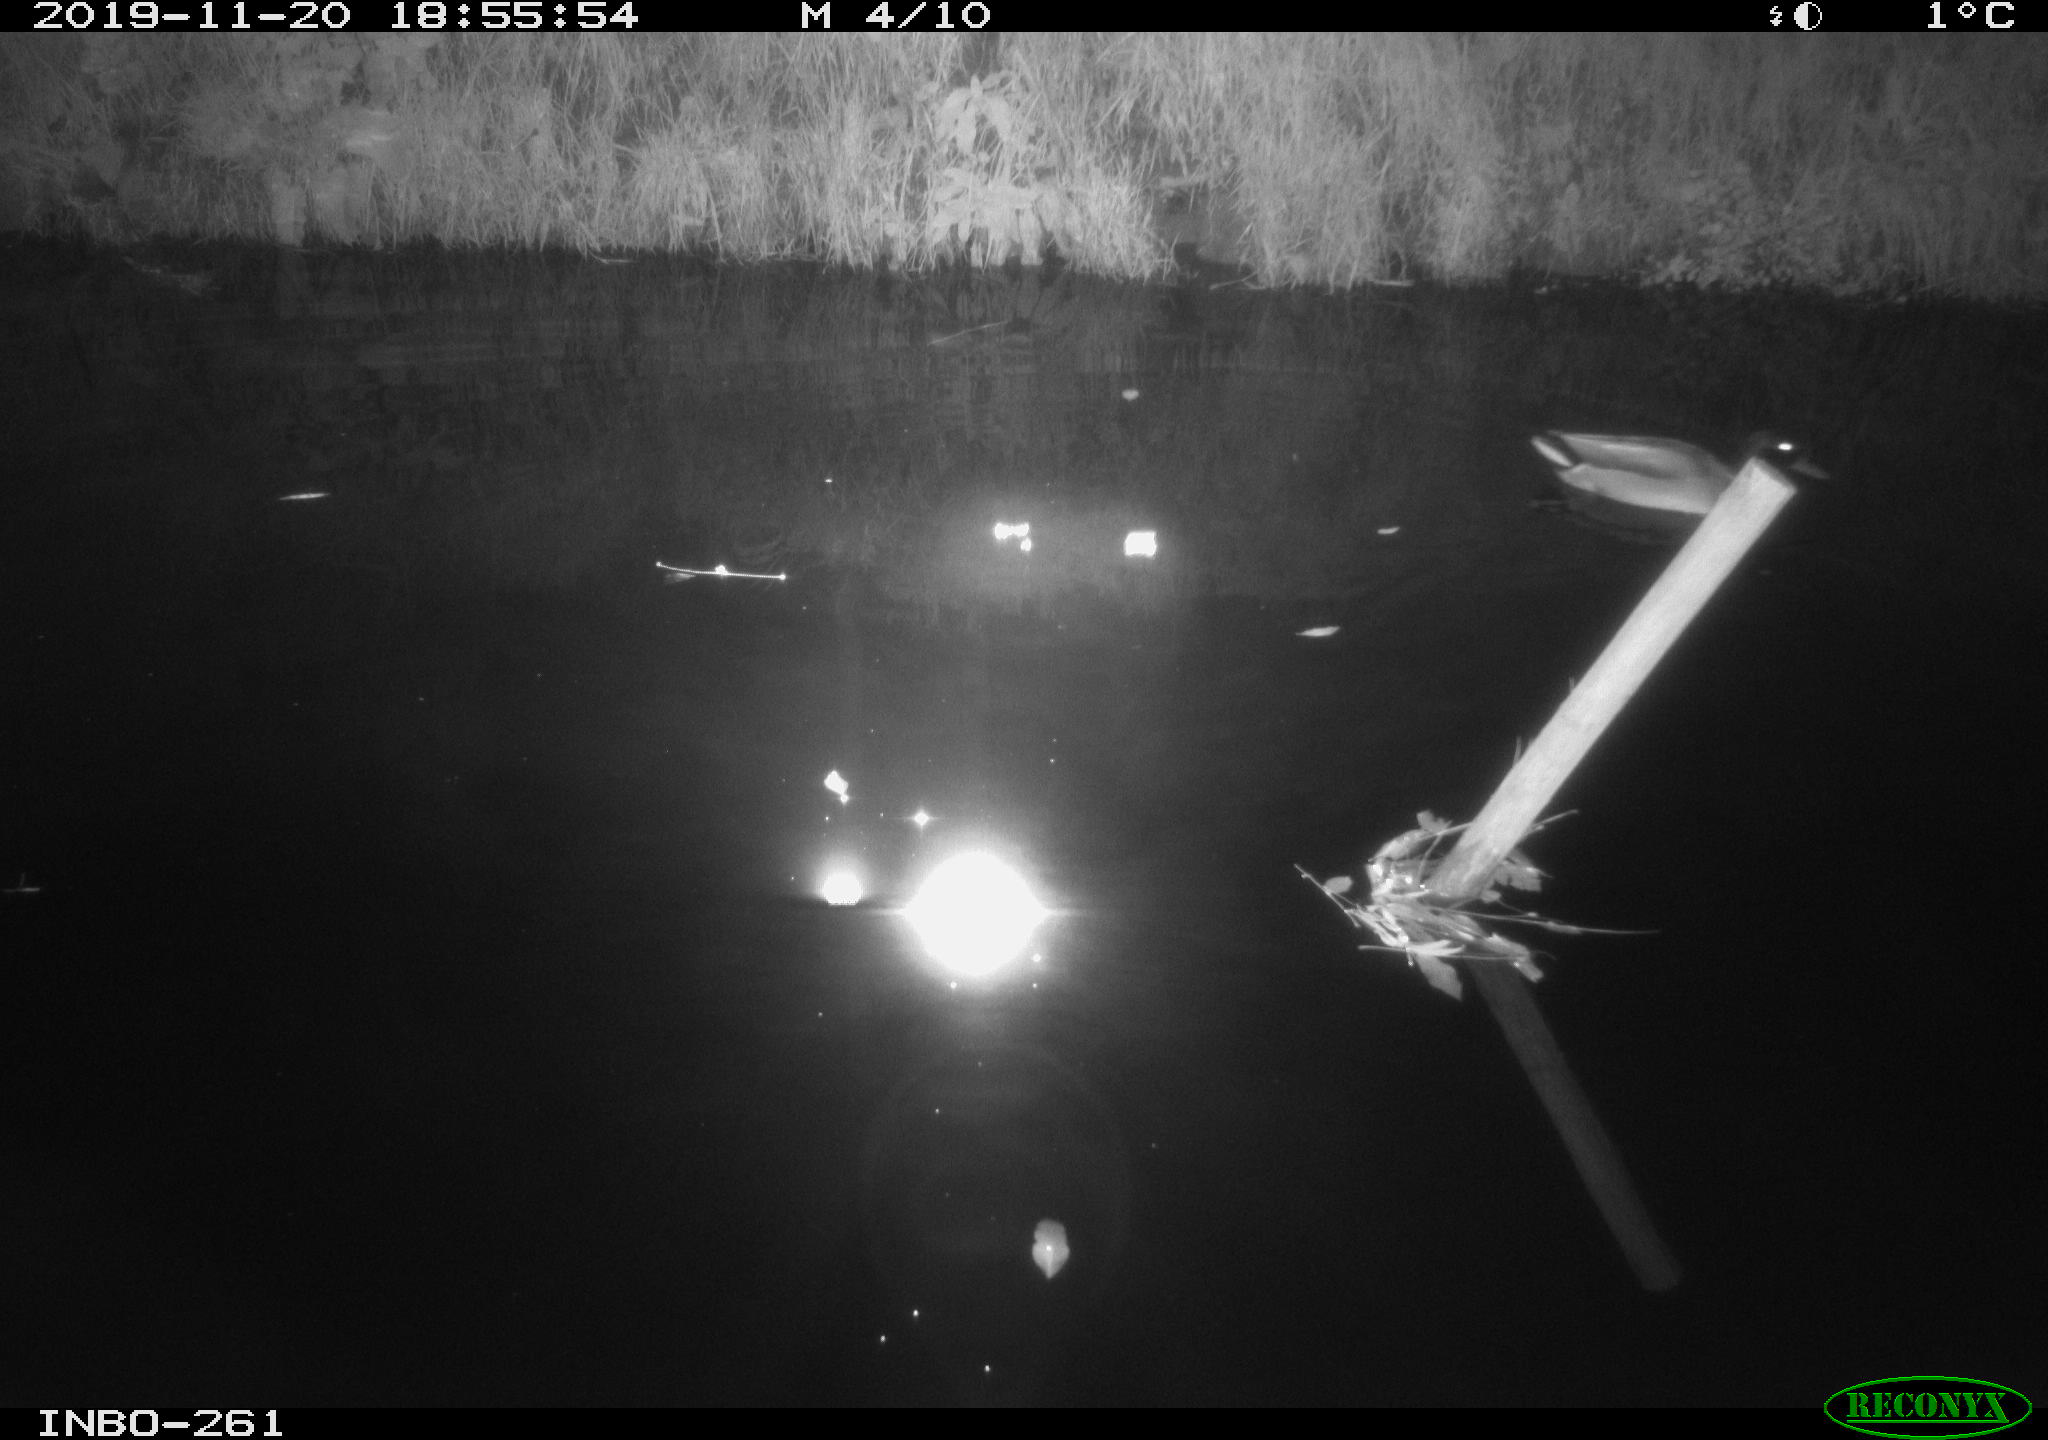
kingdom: Animalia
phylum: Chordata
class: Aves
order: Anseriformes
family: Anatidae
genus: Anas
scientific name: Anas platyrhynchos
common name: Mallard
